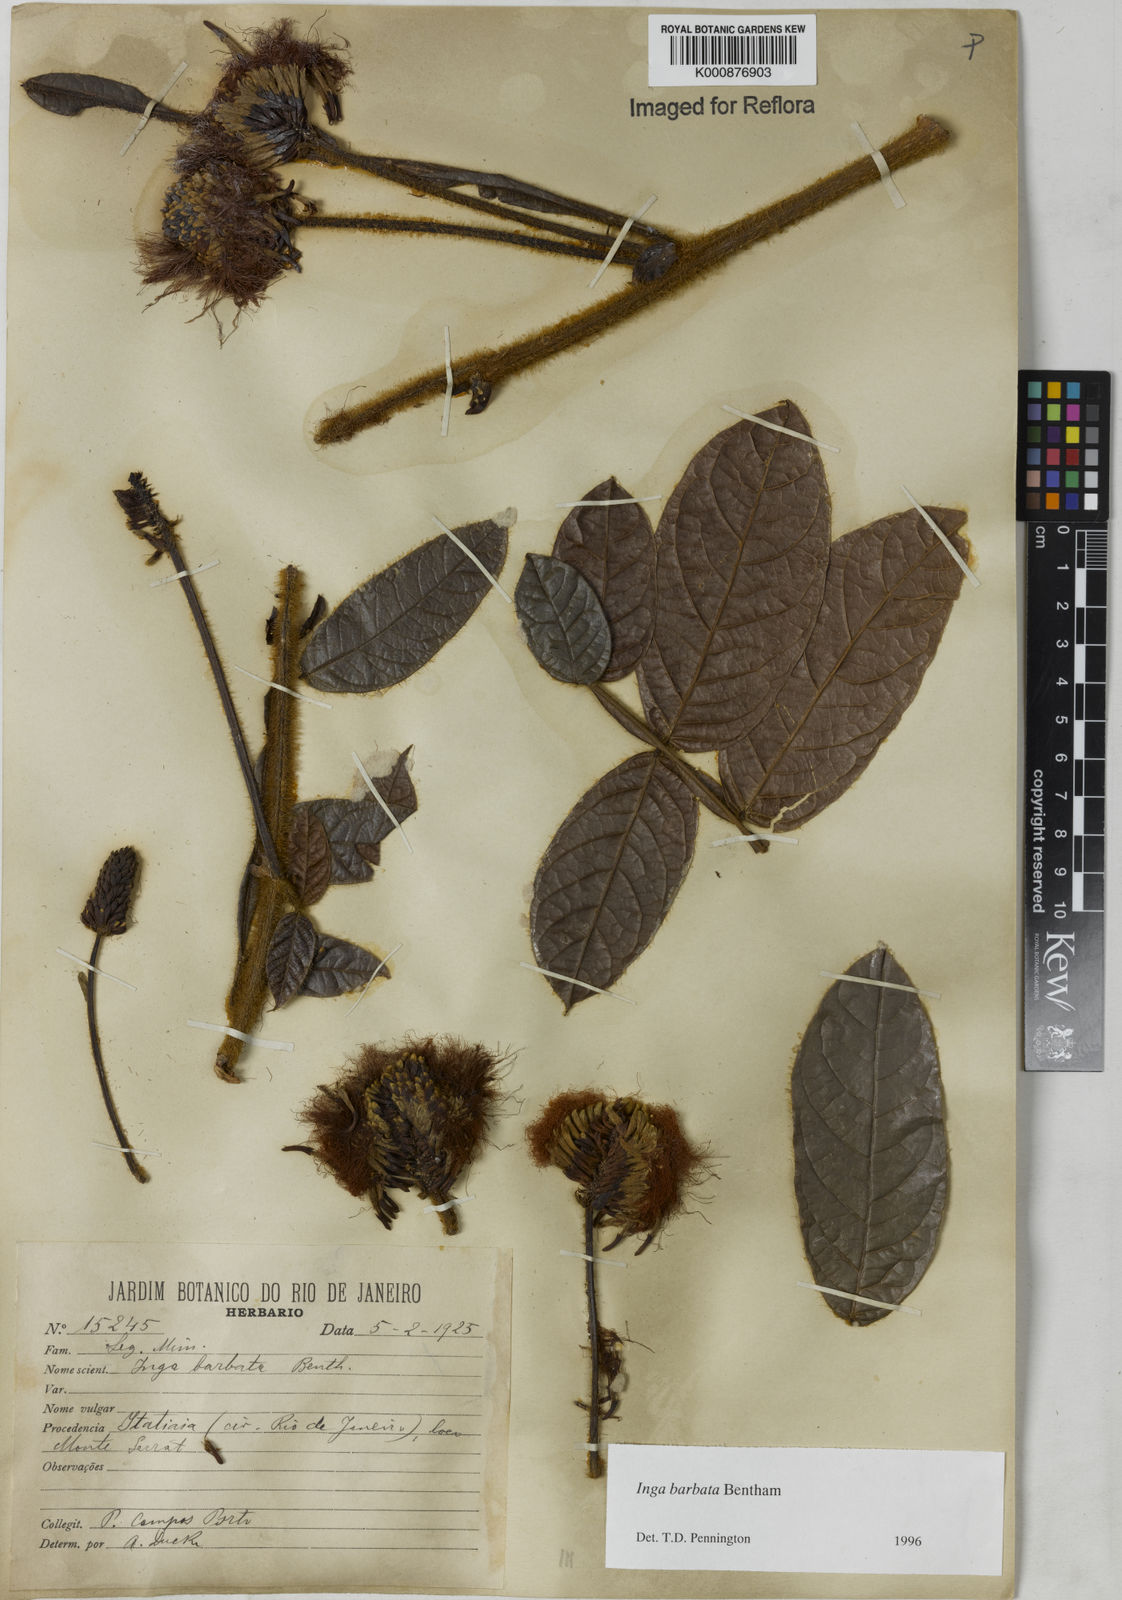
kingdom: Plantae
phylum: Tracheophyta
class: Magnoliopsida
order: Fabales
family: Fabaceae
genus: Inga
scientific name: Inga barbata
